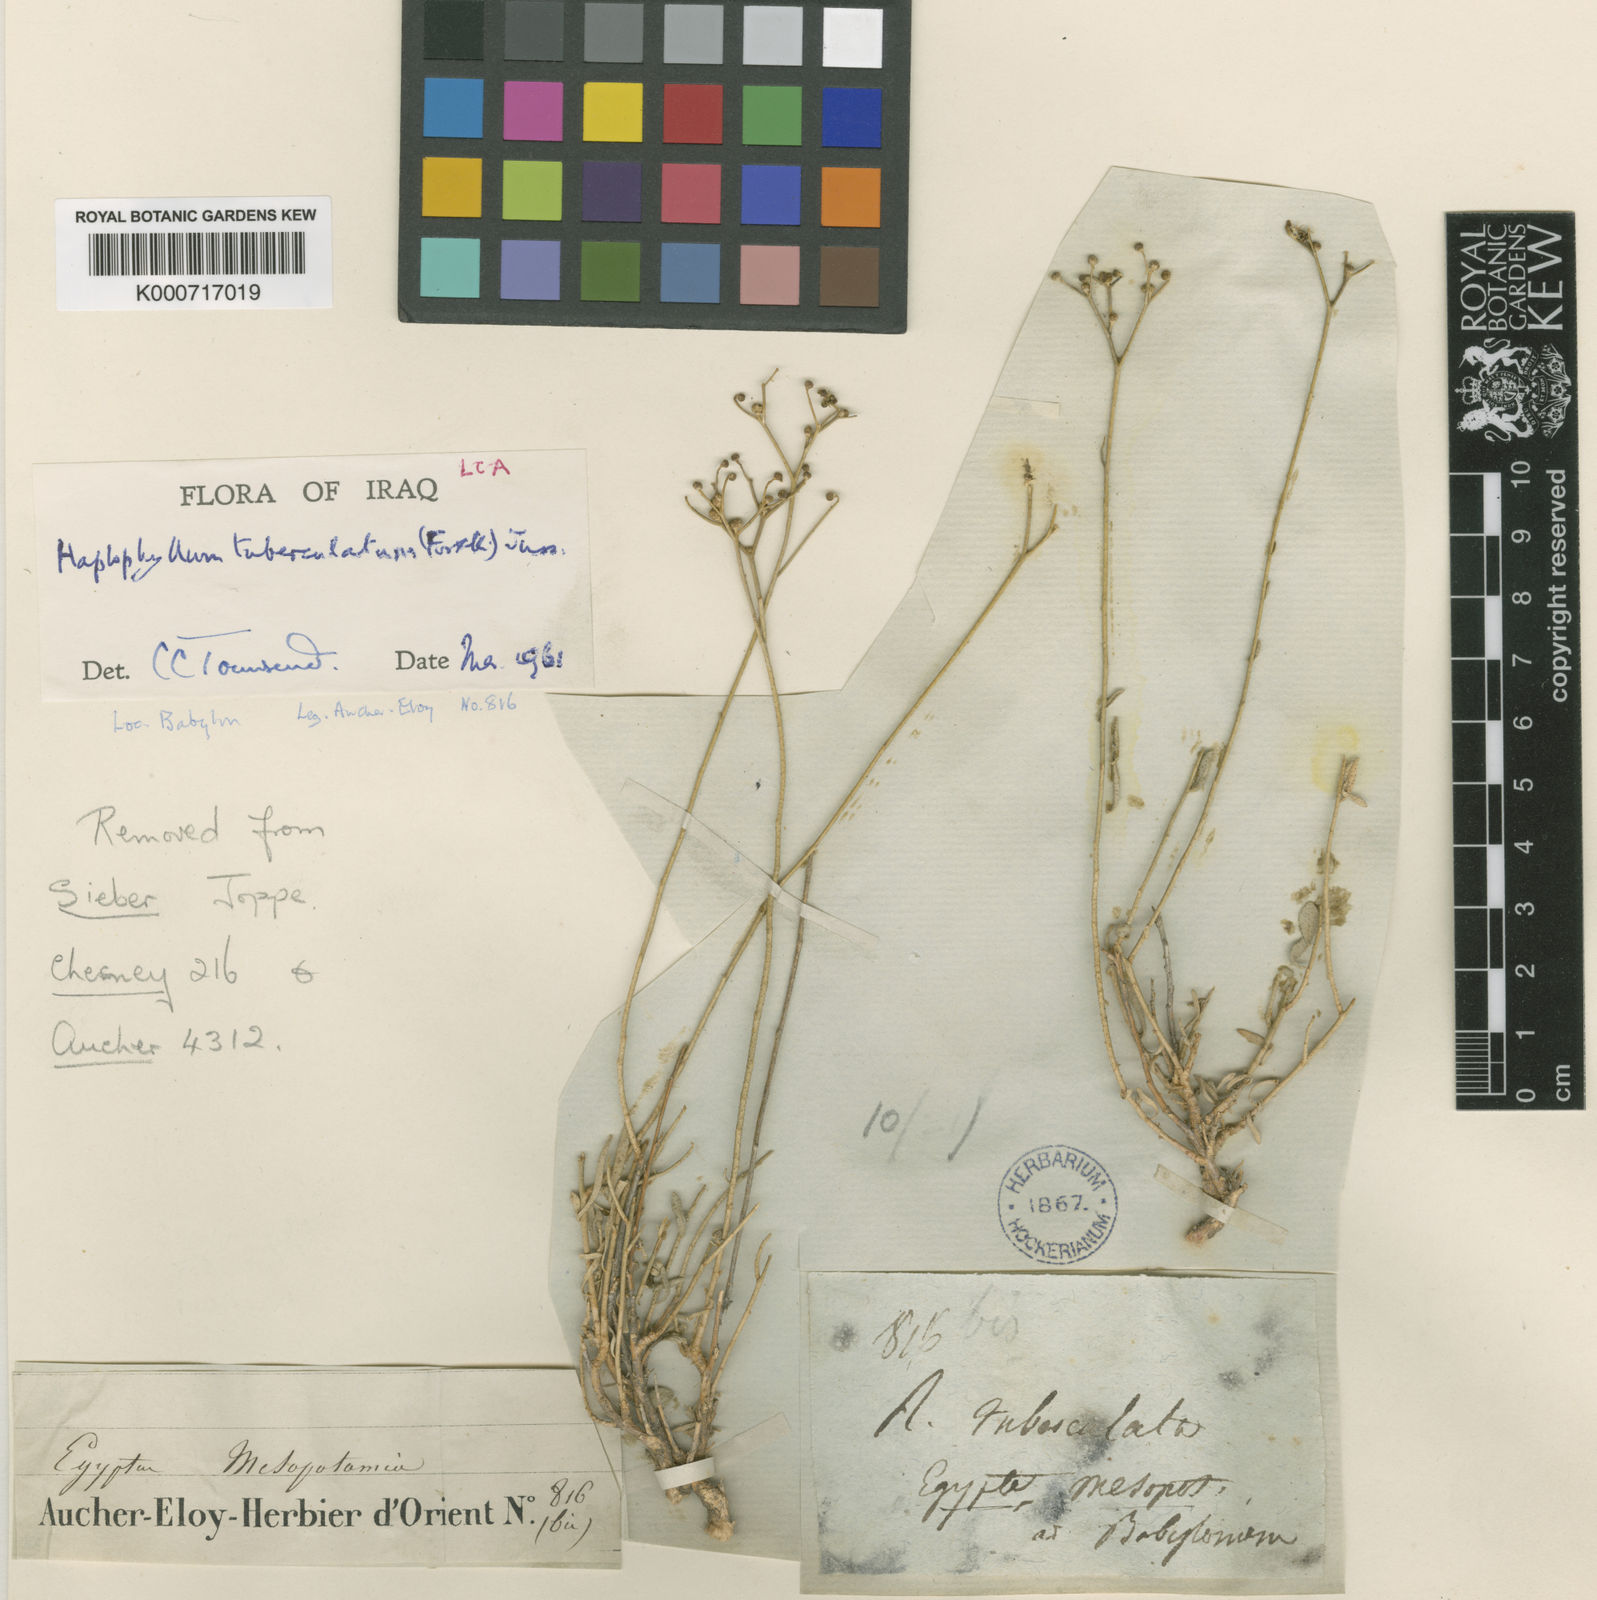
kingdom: Plantae
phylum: Tracheophyta
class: Magnoliopsida
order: Sapindales
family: Rutaceae
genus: Haplophyllum
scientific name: Haplophyllum tuberculatum
